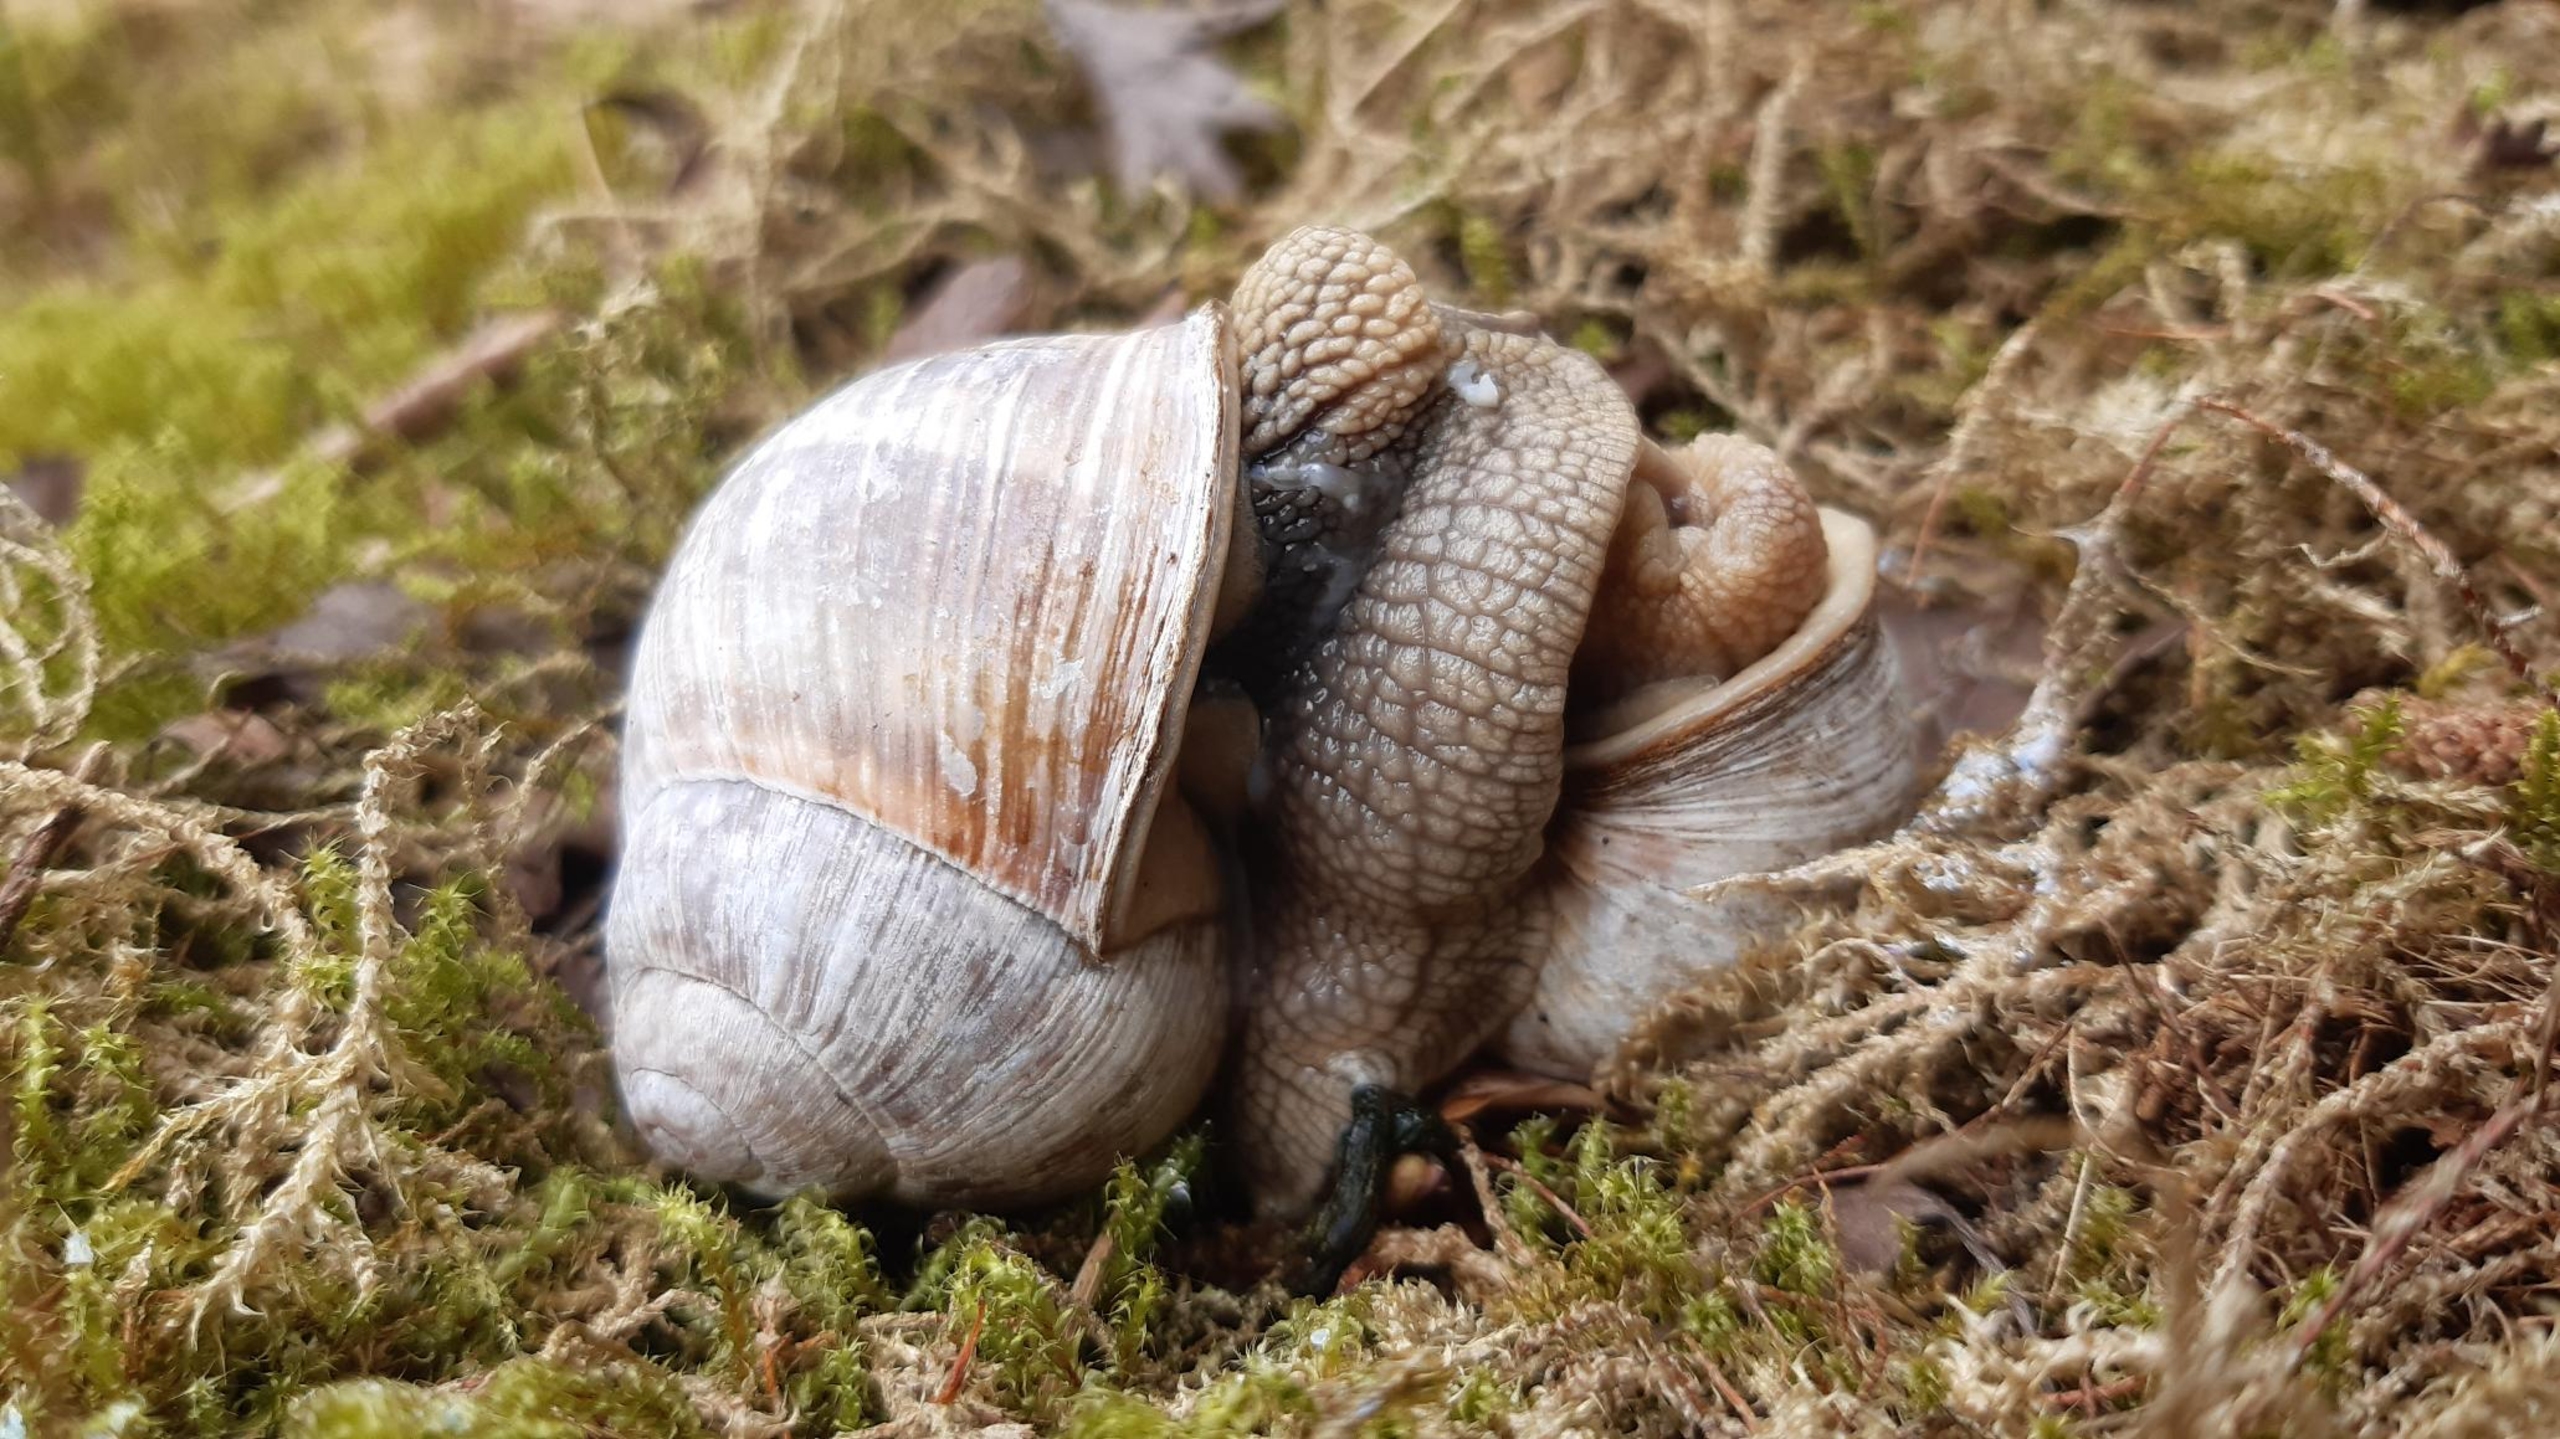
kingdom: Animalia
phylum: Mollusca
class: Gastropoda
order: Stylommatophora
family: Helicidae
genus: Helix
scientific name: Helix pomatia
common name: Vinbjergsnegl
